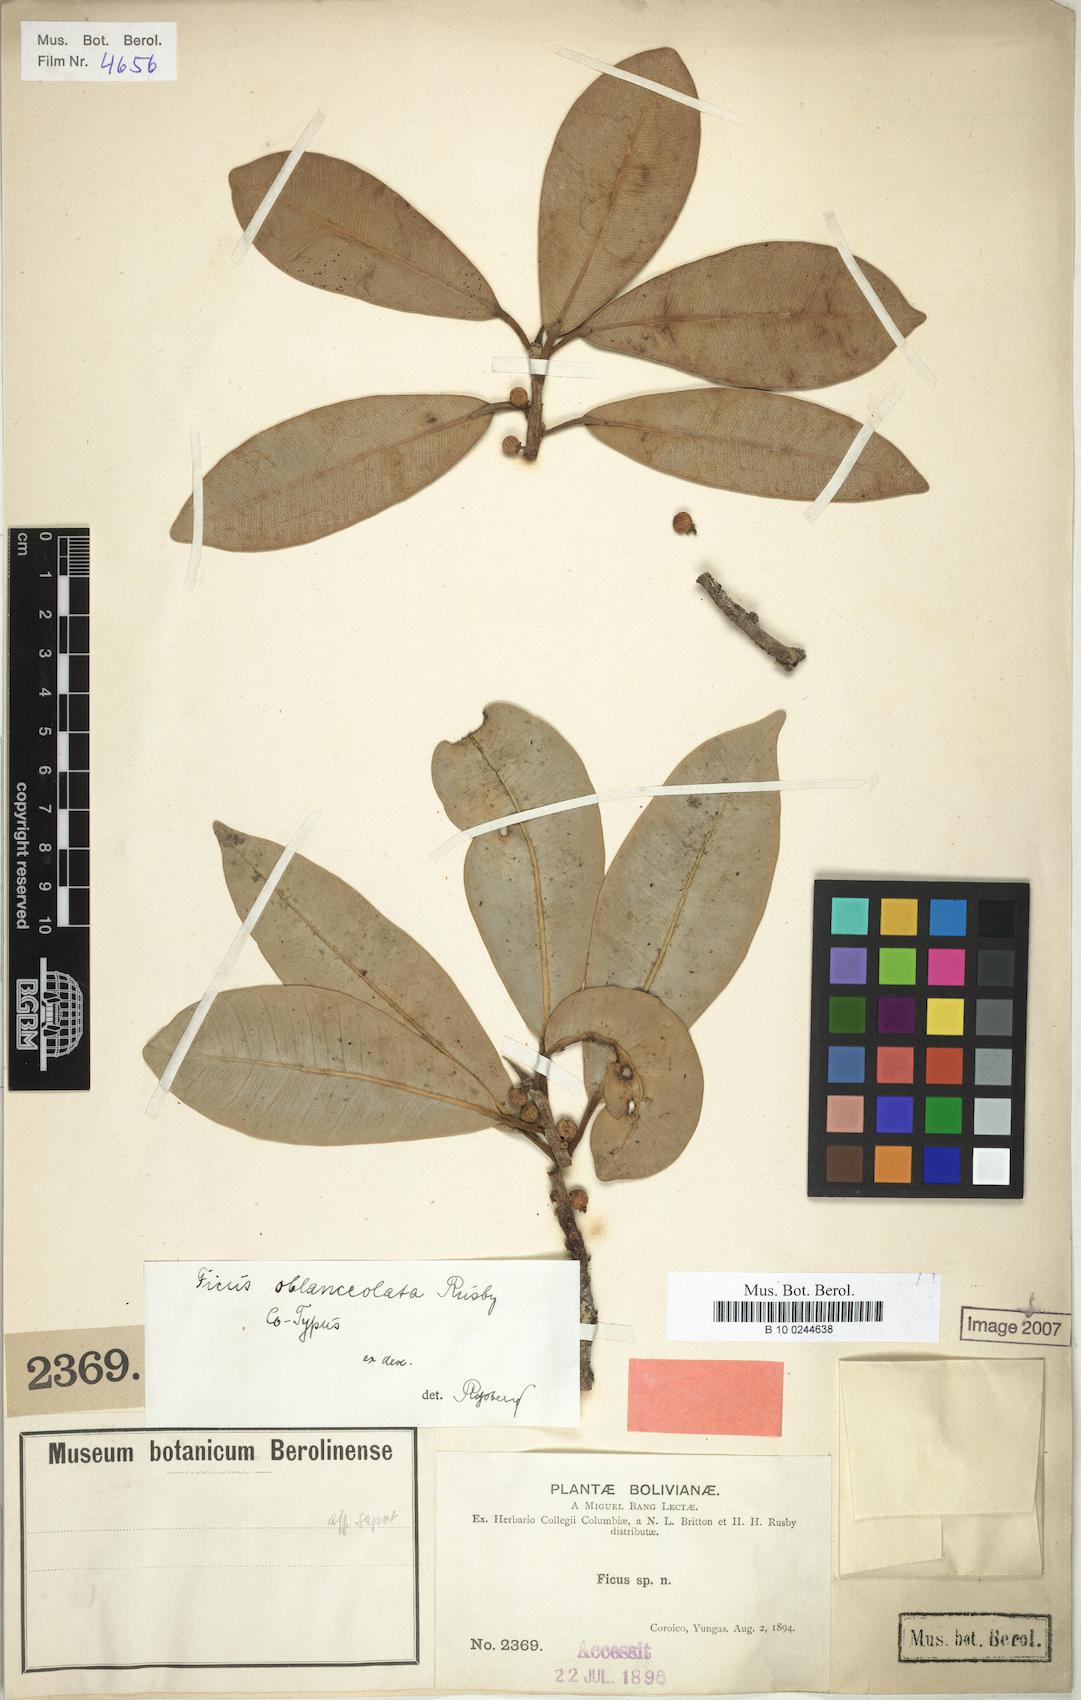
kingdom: Plantae
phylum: Tracheophyta
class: Magnoliopsida
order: Rosales
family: Moraceae
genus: Ficus
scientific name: Ficus mathewsii
